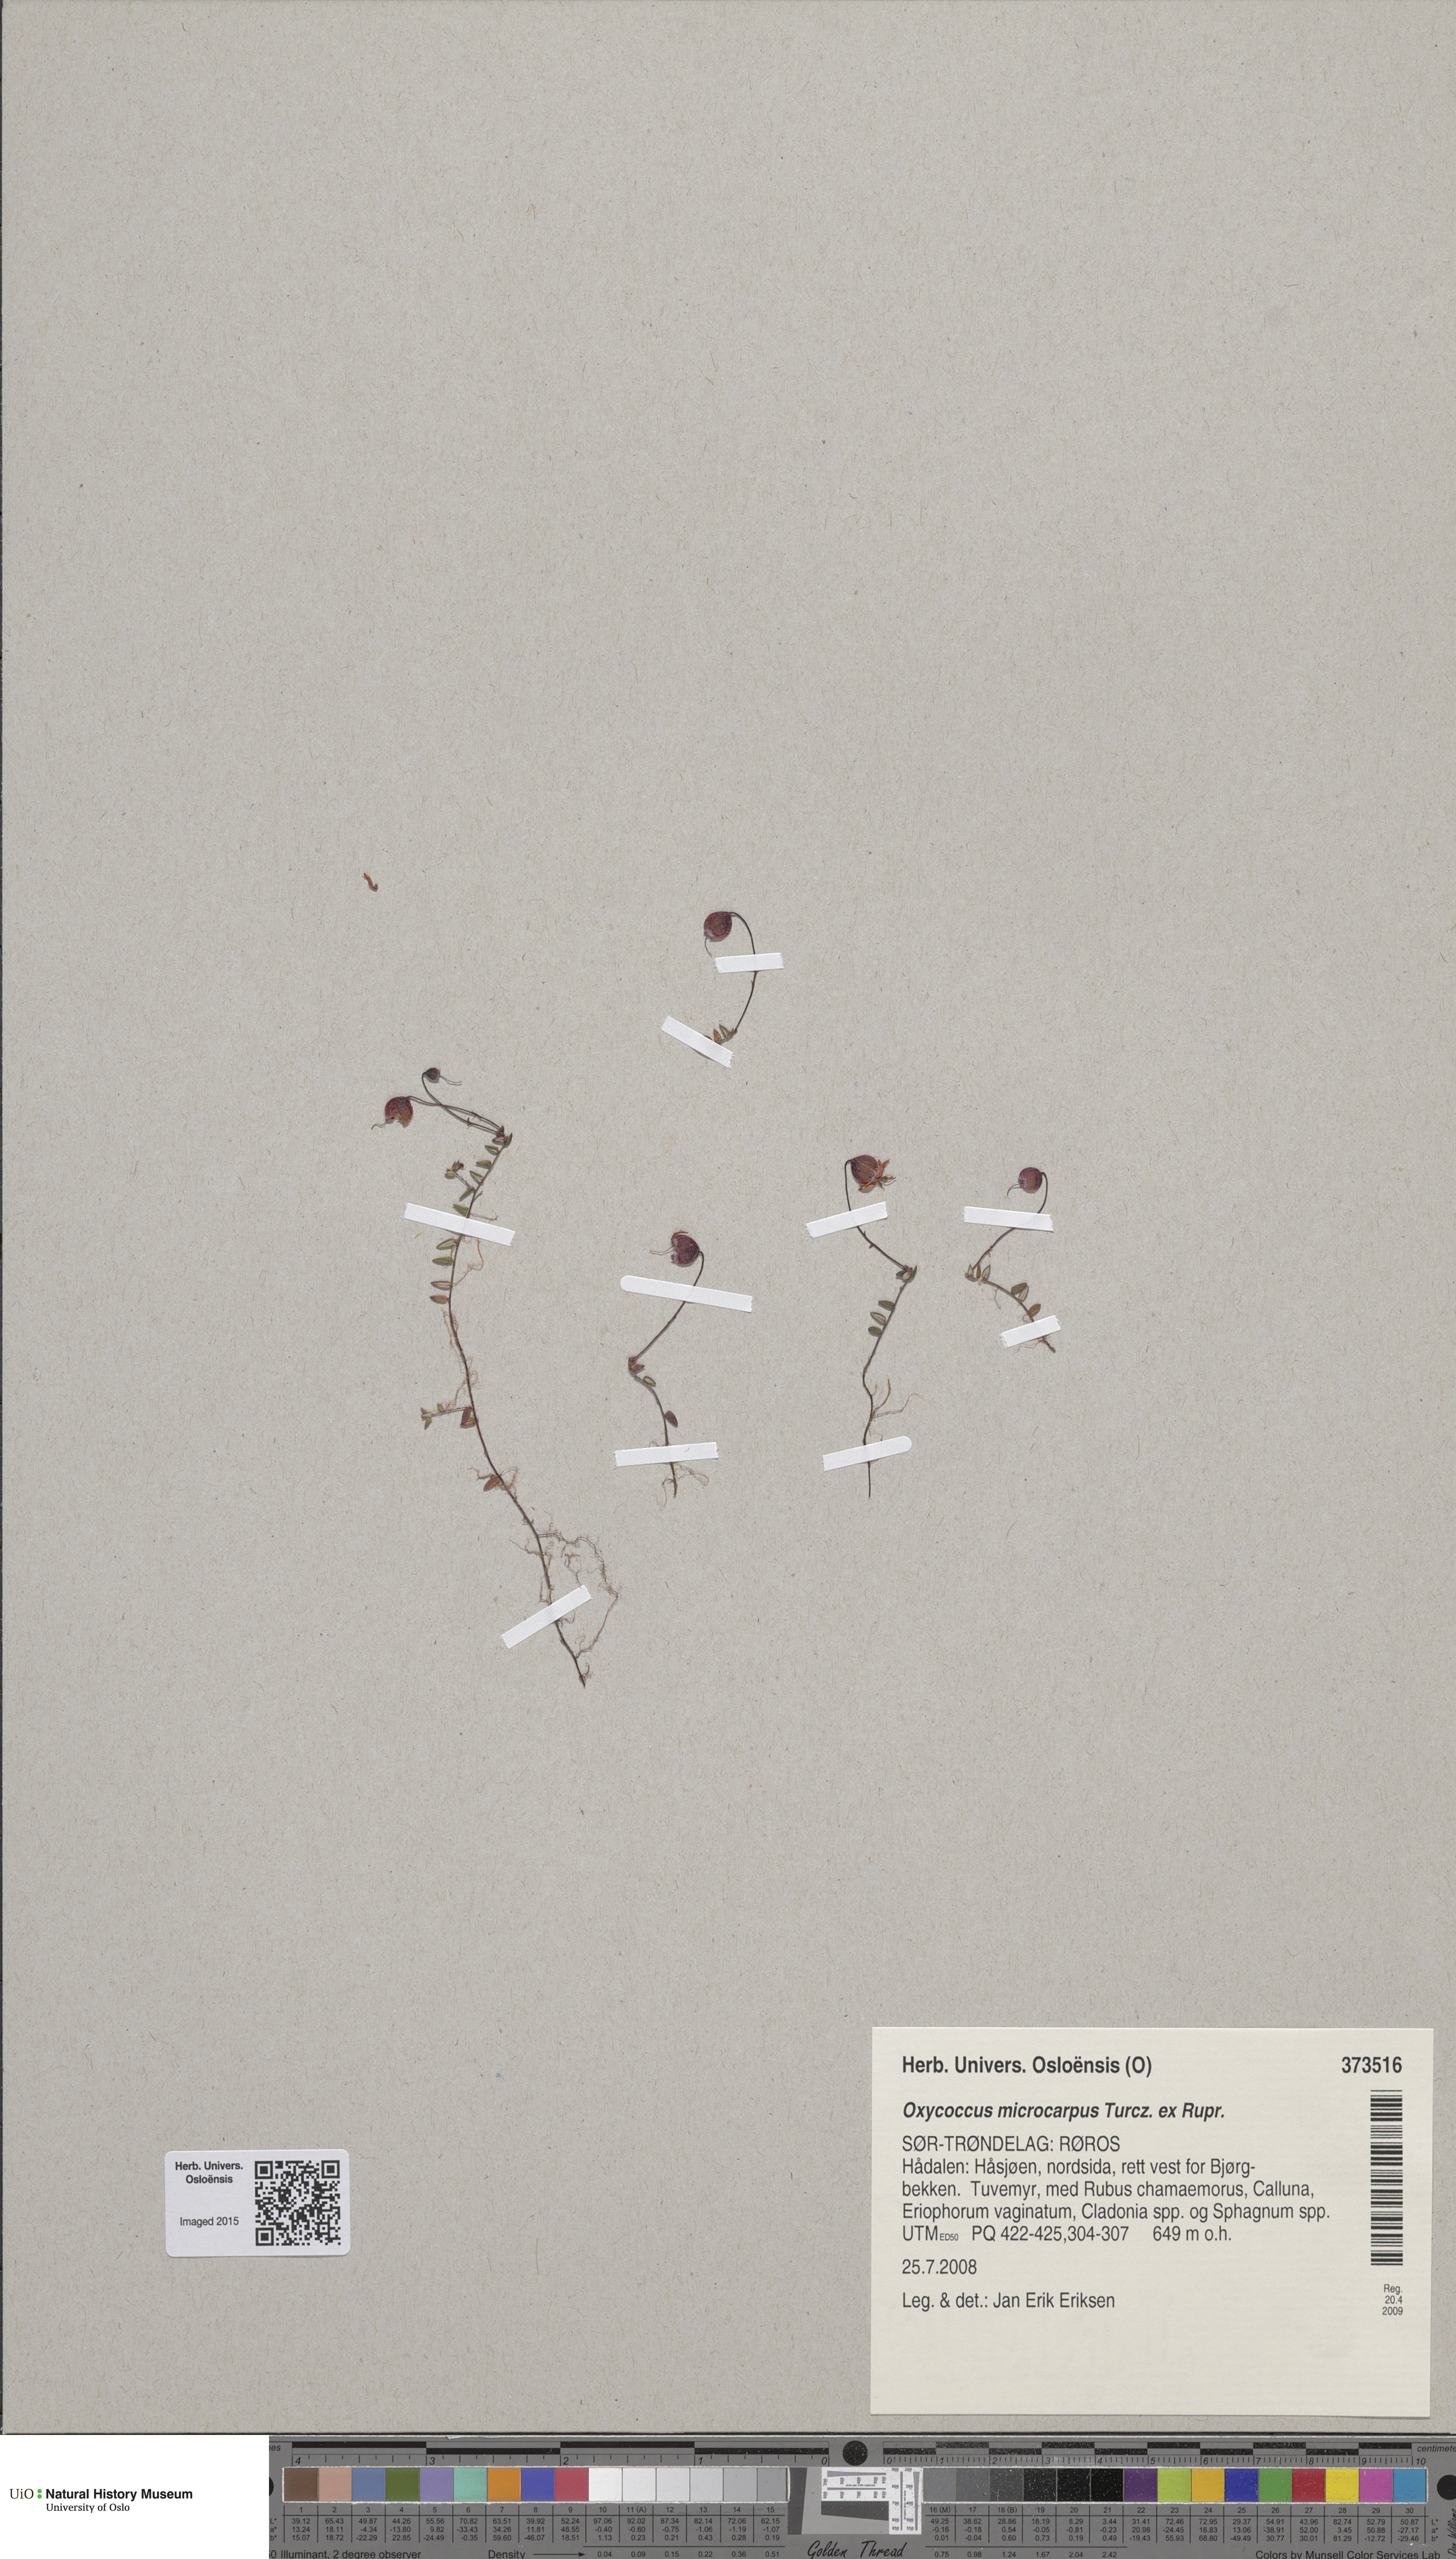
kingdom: Plantae
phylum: Tracheophyta
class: Magnoliopsida
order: Ericales
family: Ericaceae
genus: Vaccinium
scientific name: Vaccinium microcarpum
